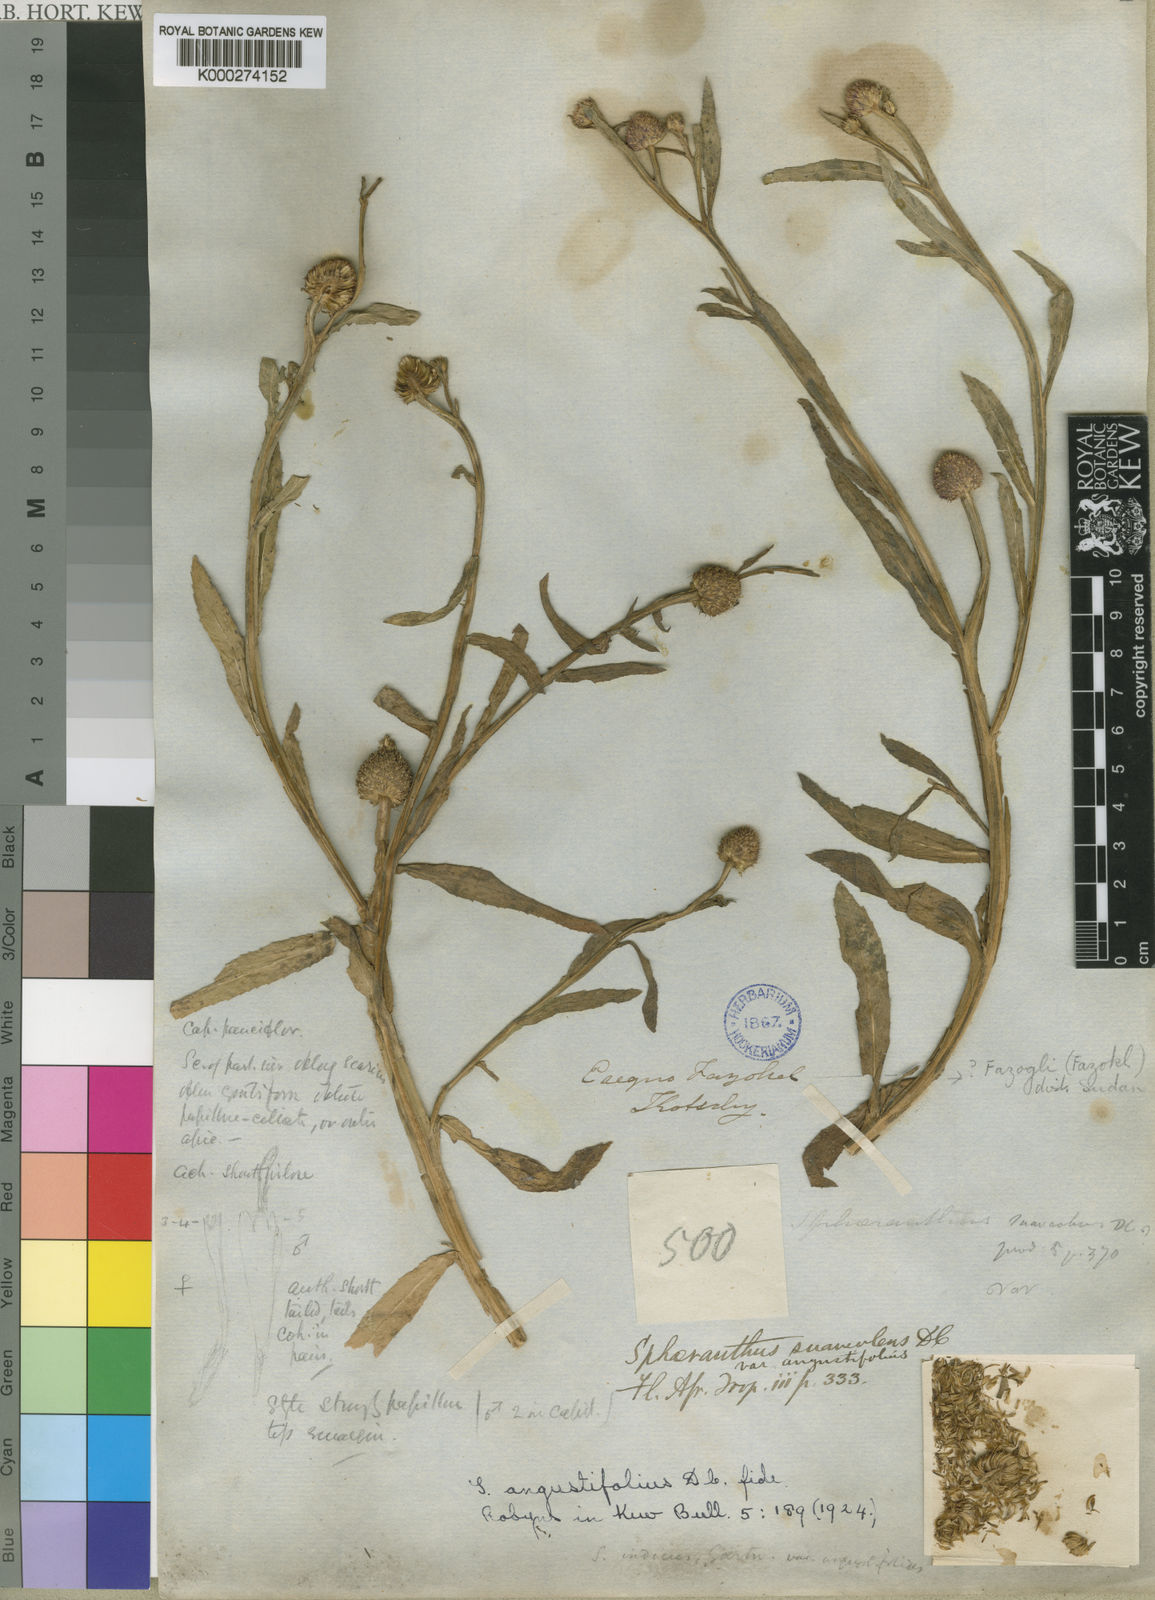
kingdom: Plantae
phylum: Tracheophyta
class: Magnoliopsida
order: Asterales
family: Asteraceae
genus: Sphaeranthus
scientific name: Sphaeranthus suaveolens
